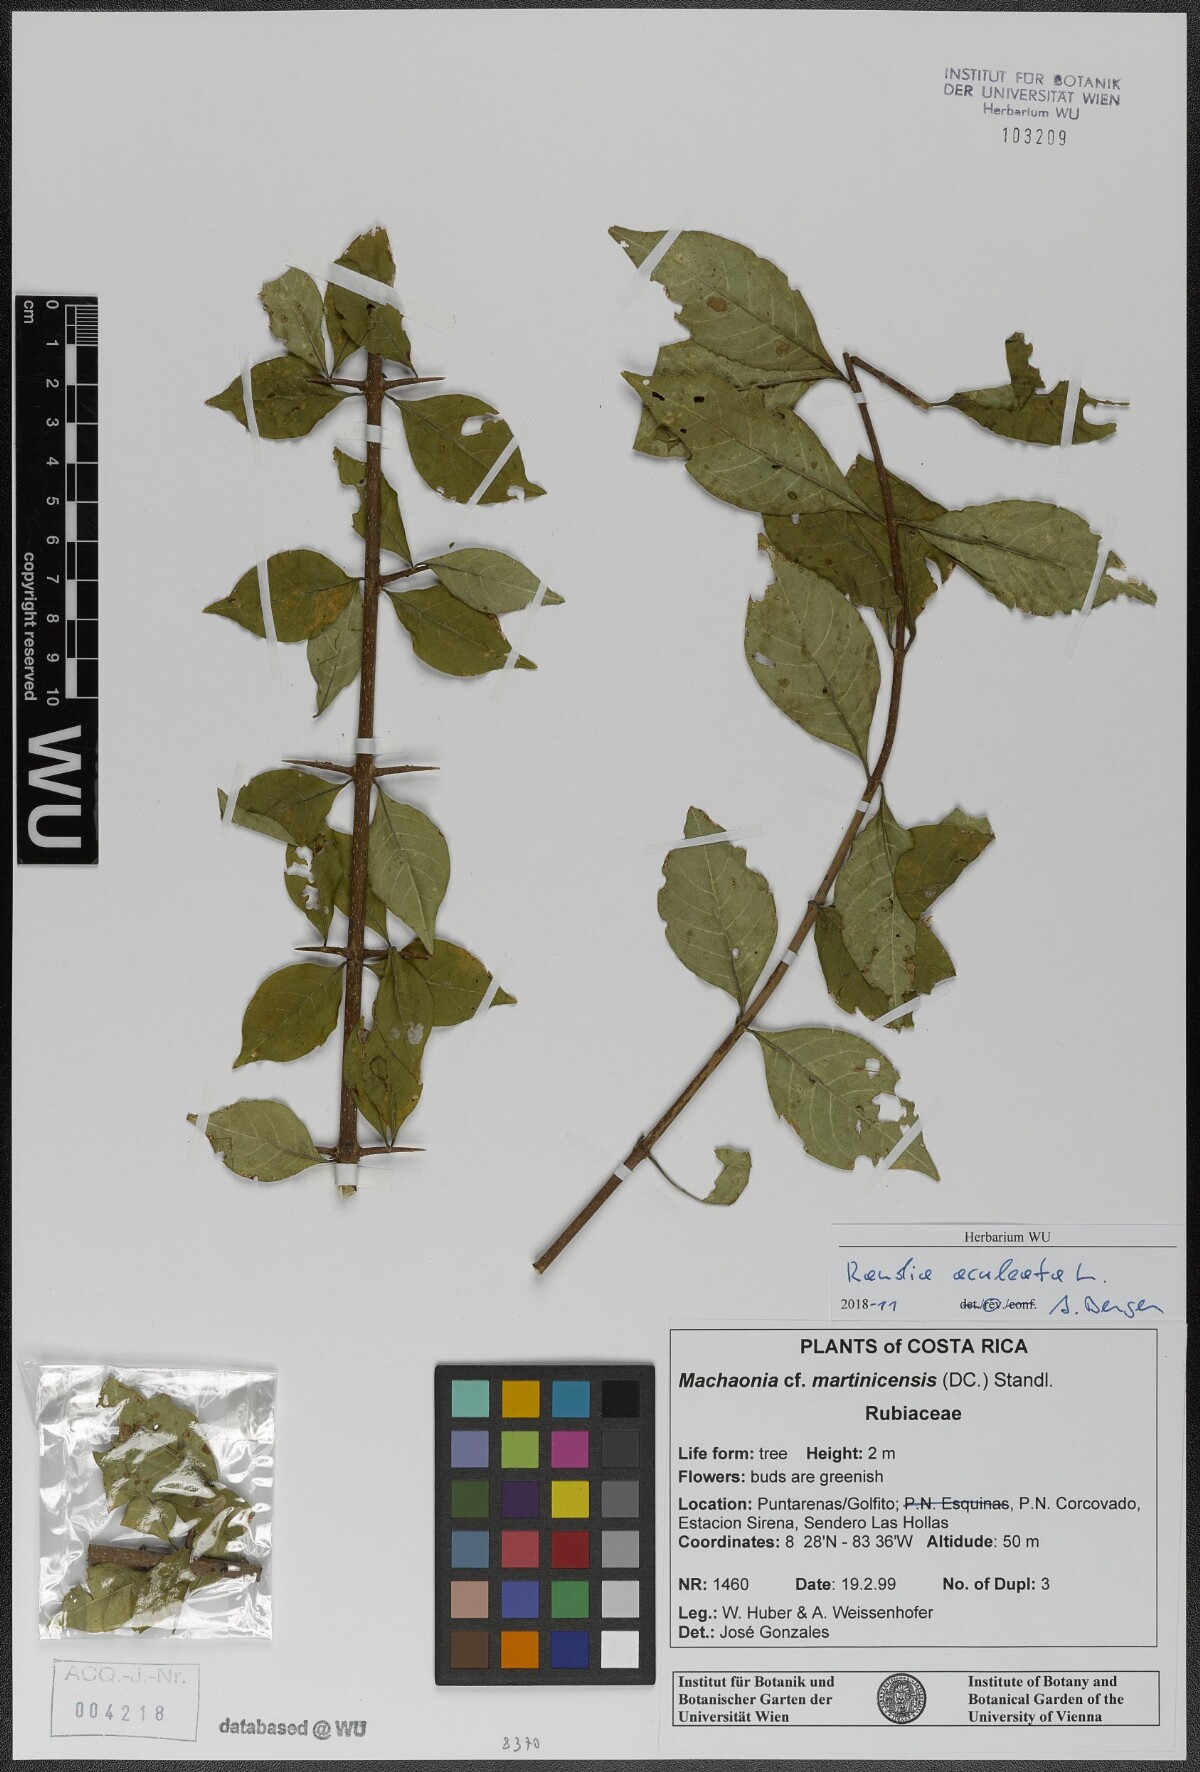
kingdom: Plantae
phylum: Tracheophyta
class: Magnoliopsida
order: Gentianales
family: Rubiaceae
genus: Randia
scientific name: Randia aculeata
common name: Inkberry
